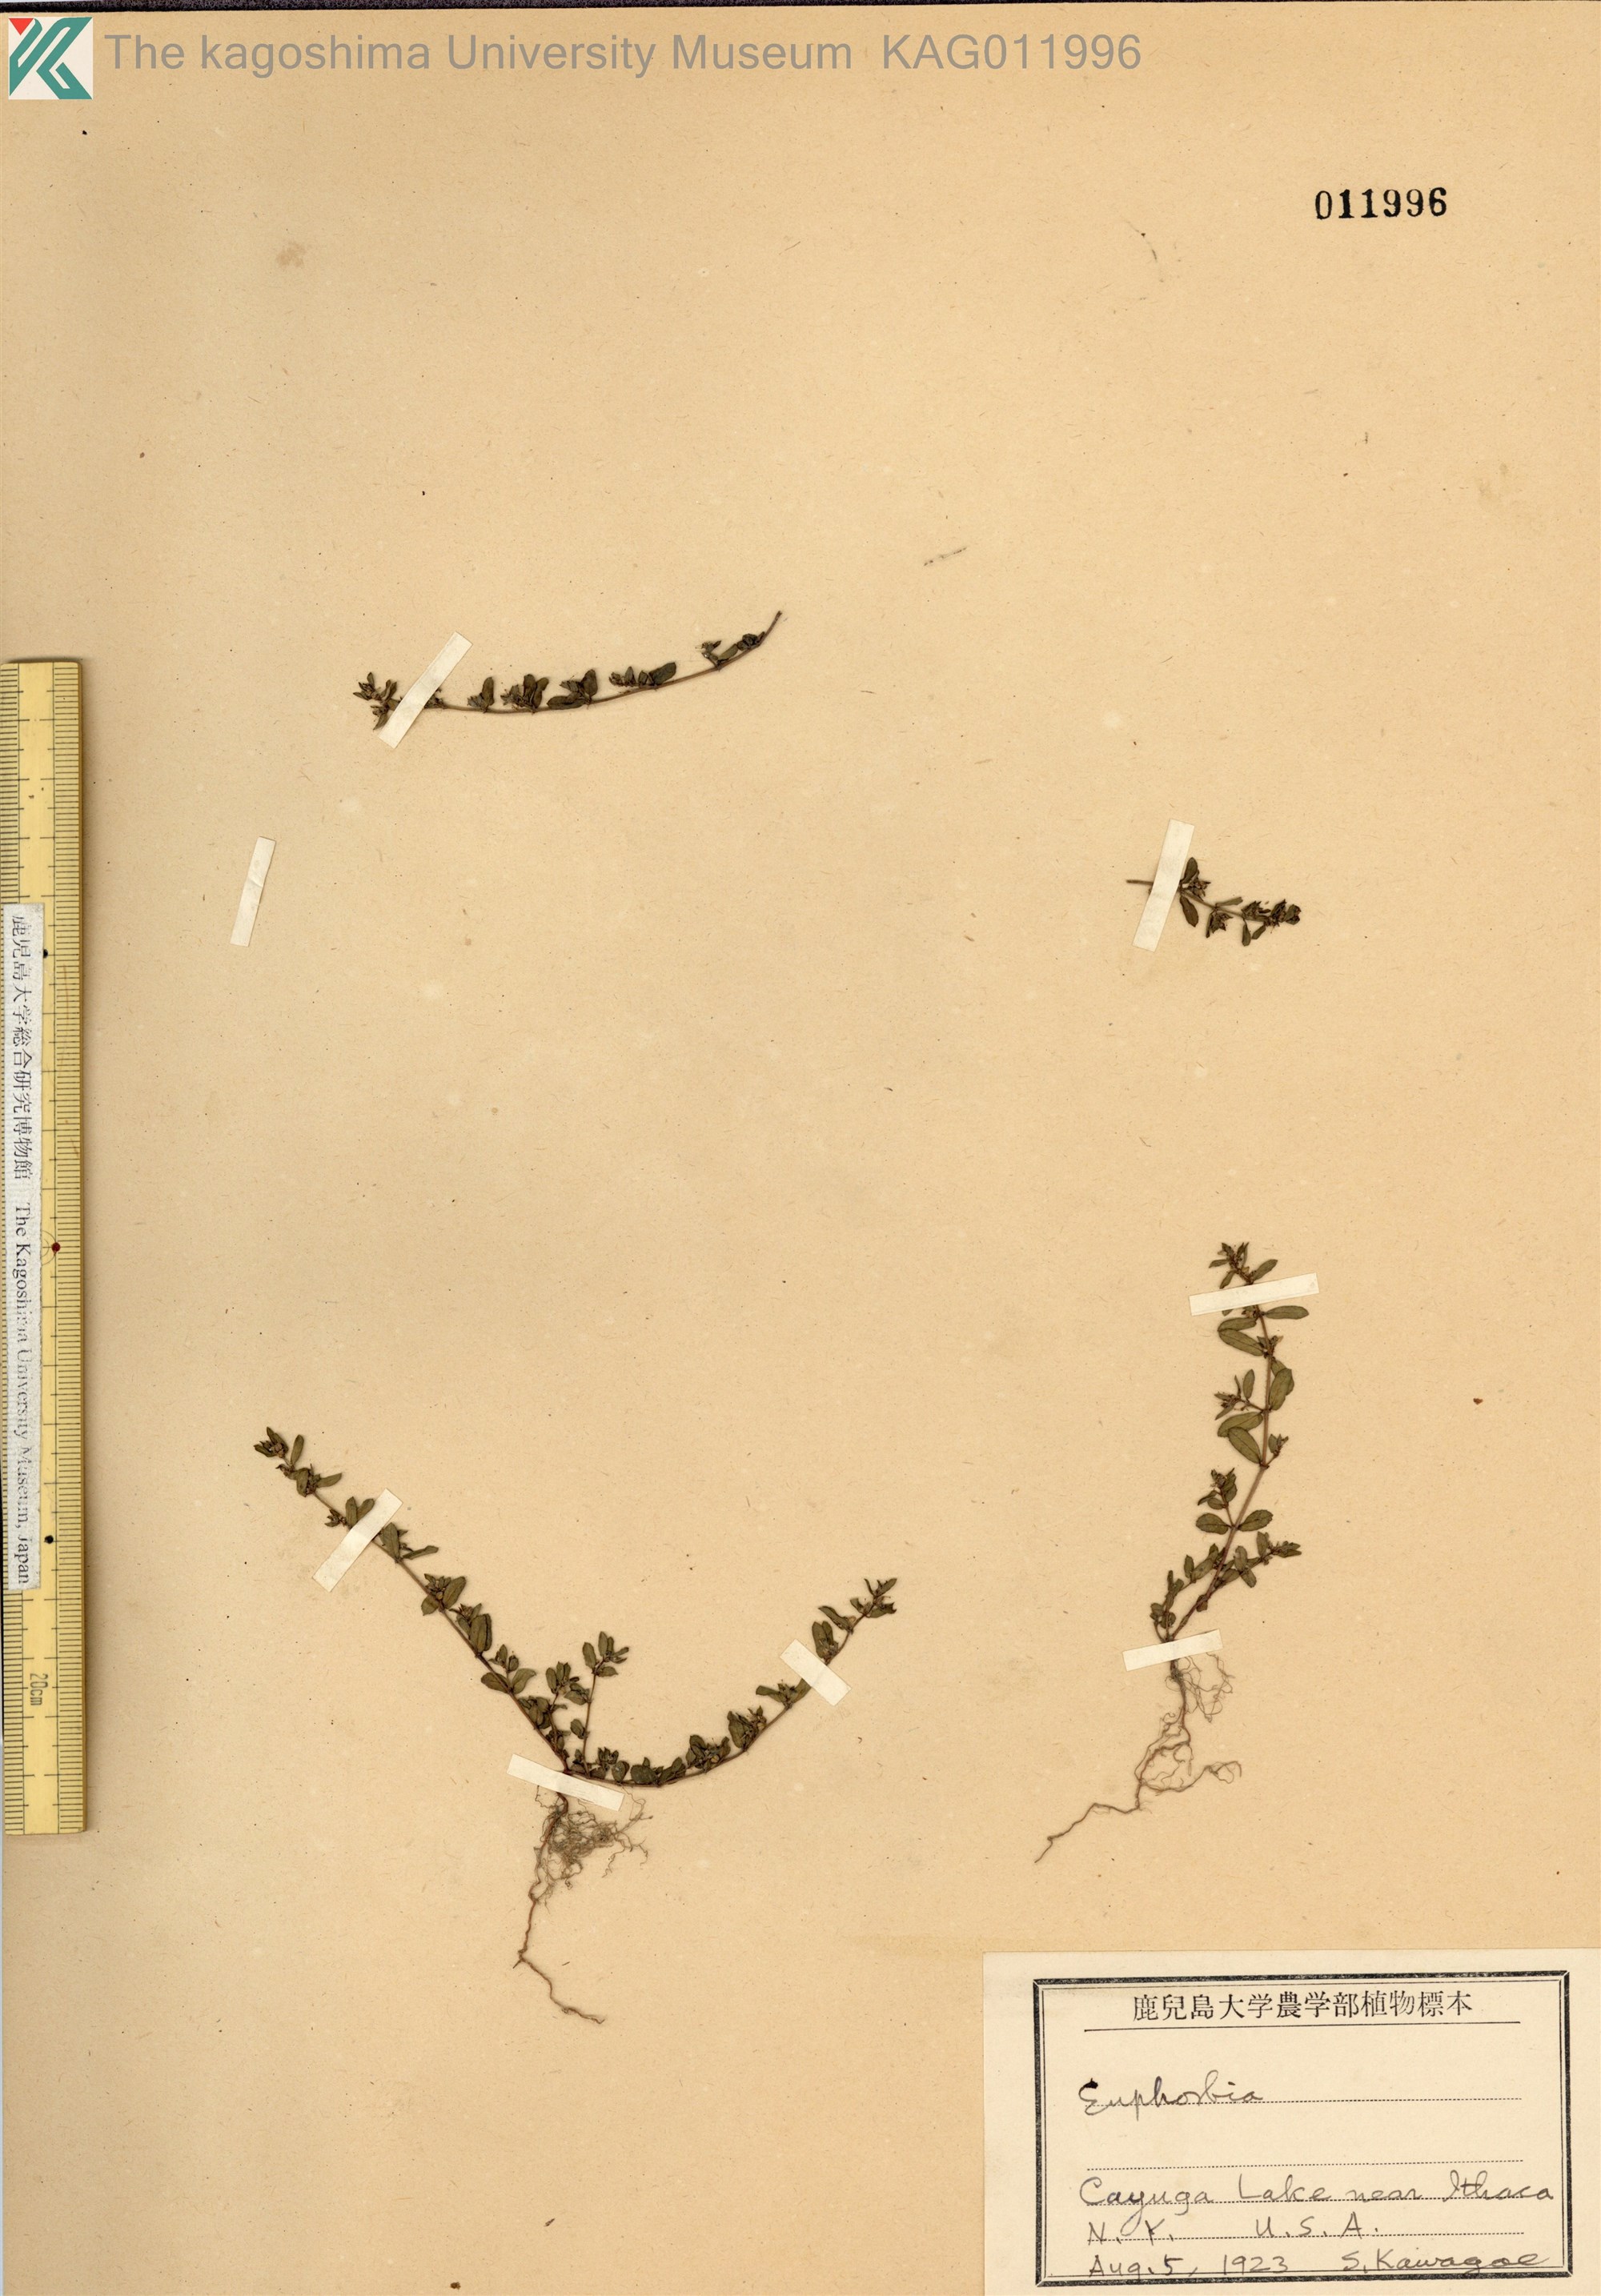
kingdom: Plantae
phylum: Tracheophyta
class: Magnoliopsida
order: Malpighiales
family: Euphorbiaceae
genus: Euphorbia
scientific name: Euphorbia hirsuta
